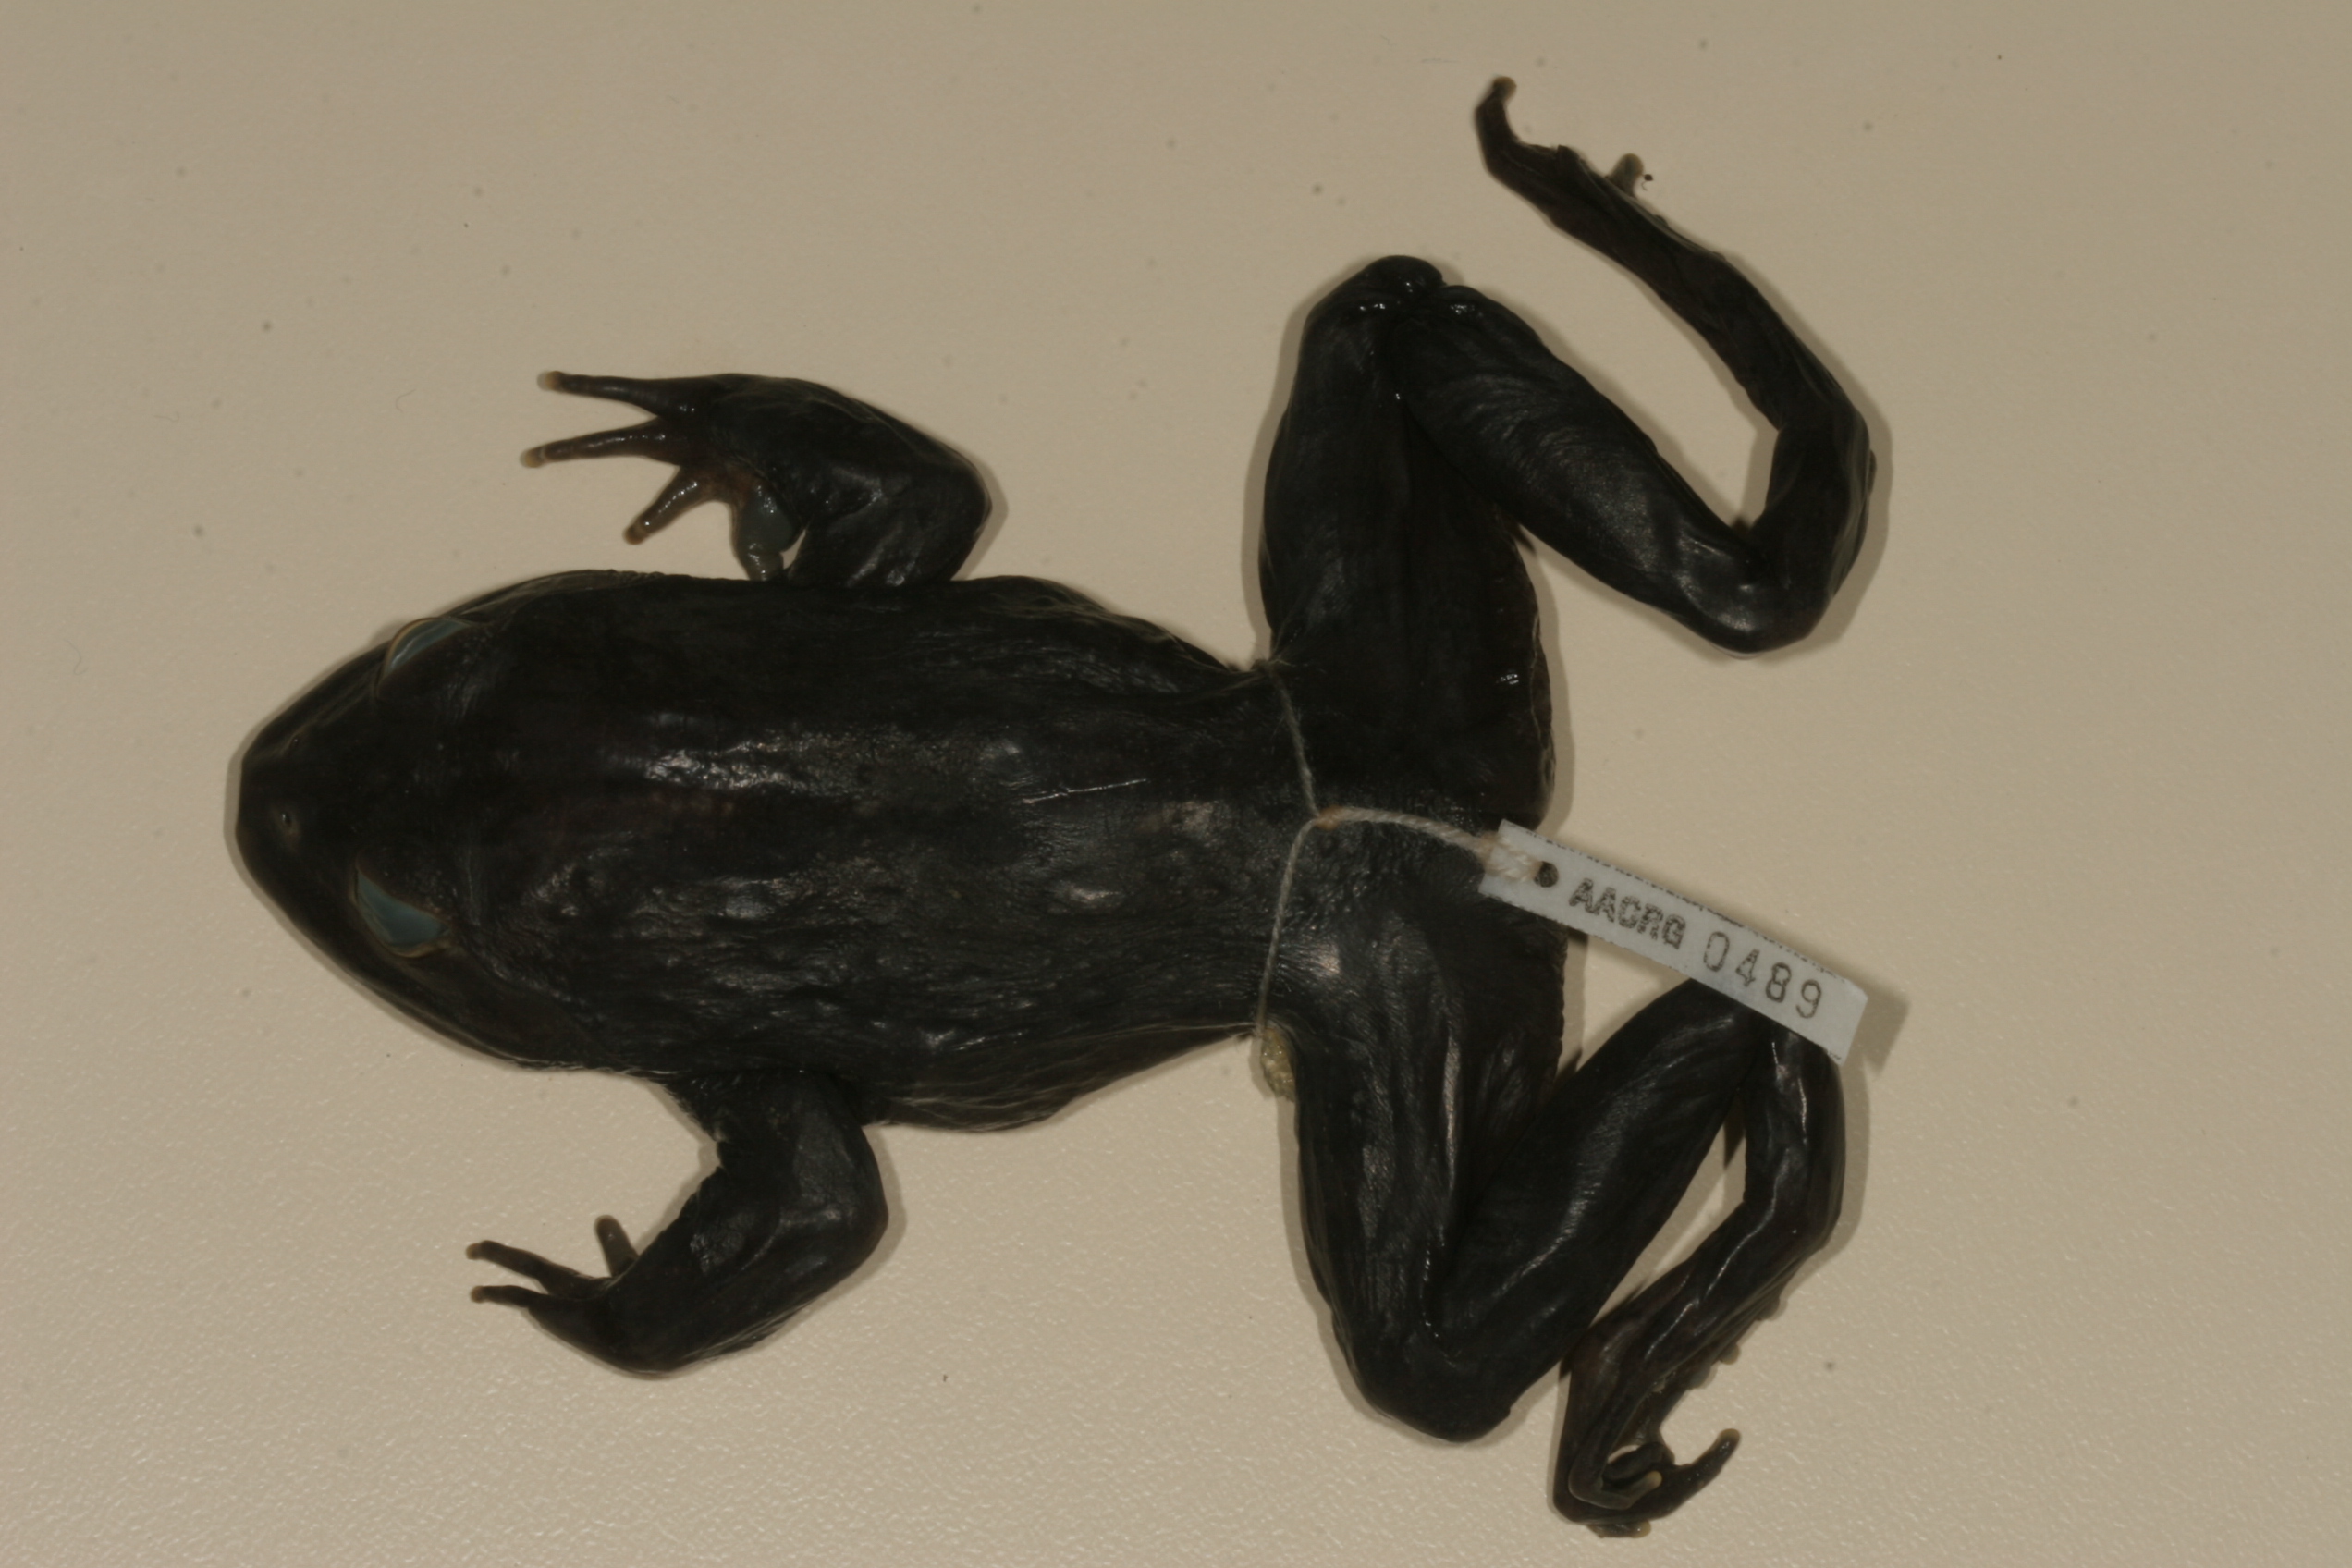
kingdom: Animalia
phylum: Chordata
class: Amphibia
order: Anura
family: Pyxicephalidae
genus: Amietia
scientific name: Amietia vertebralis
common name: Drakensberg stream frog
